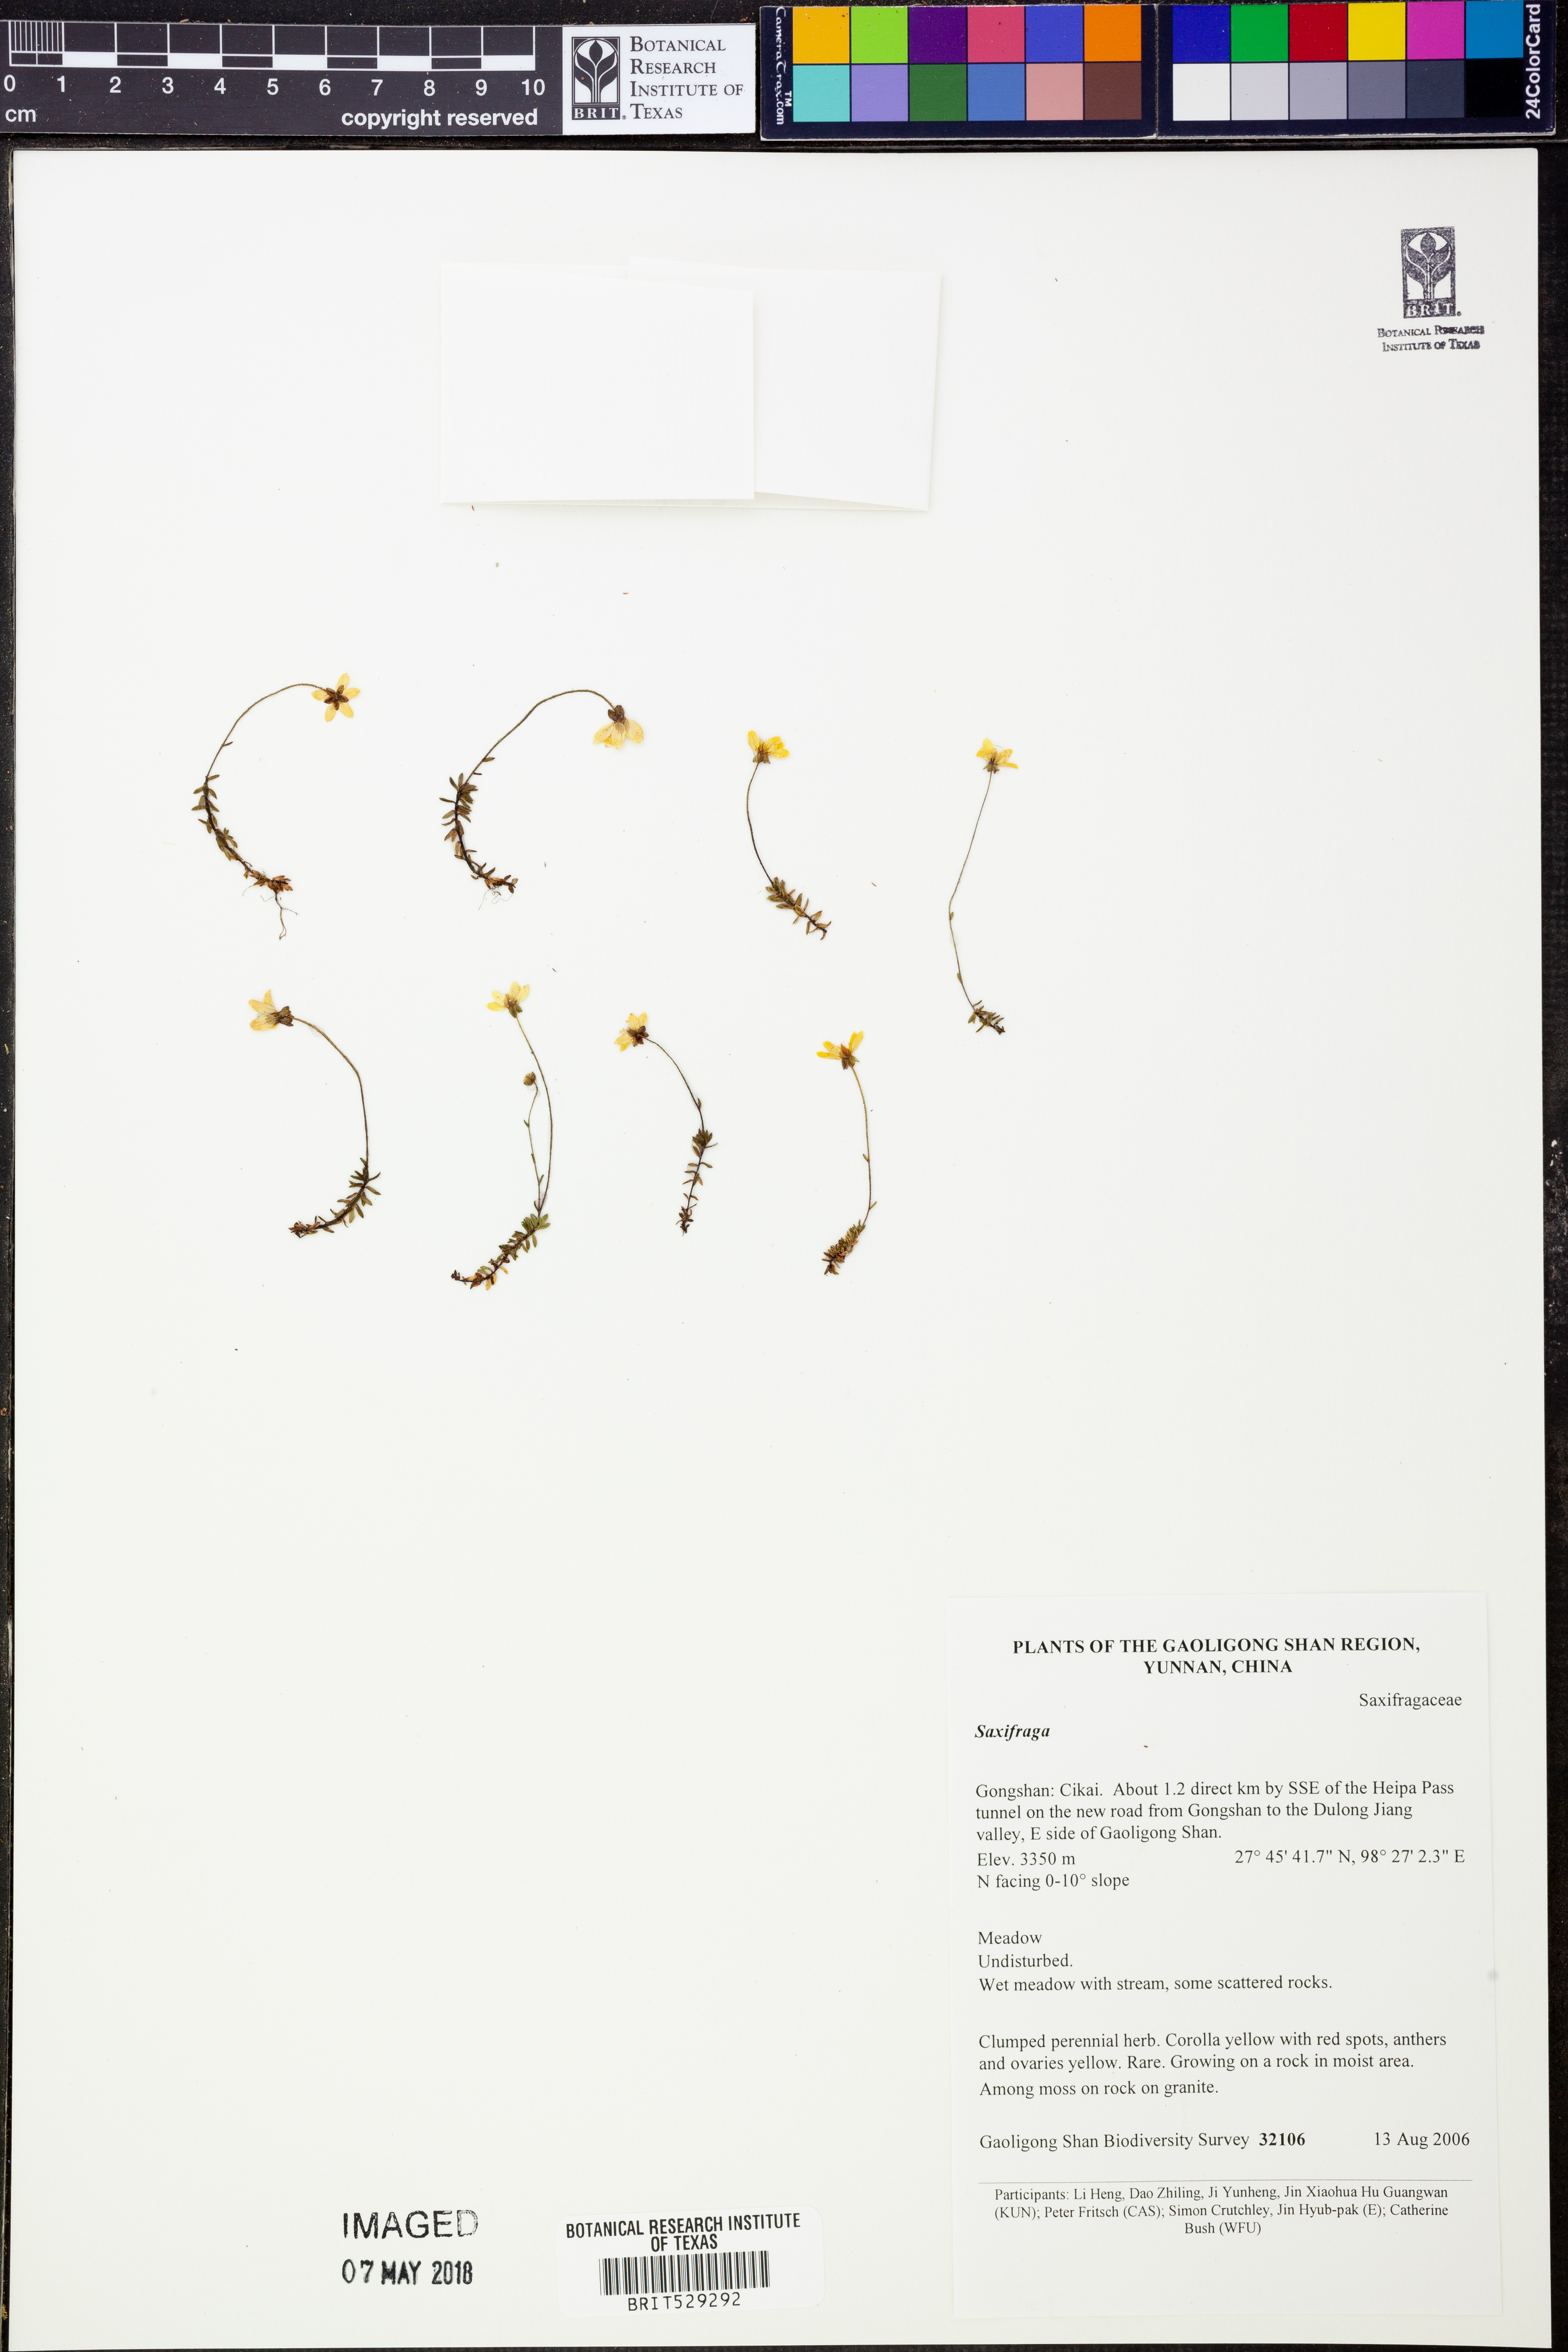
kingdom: Plantae
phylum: Tracheophyta
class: Magnoliopsida
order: Saxifragales
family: Saxifragaceae
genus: Saxifraga
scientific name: Saxifraga
